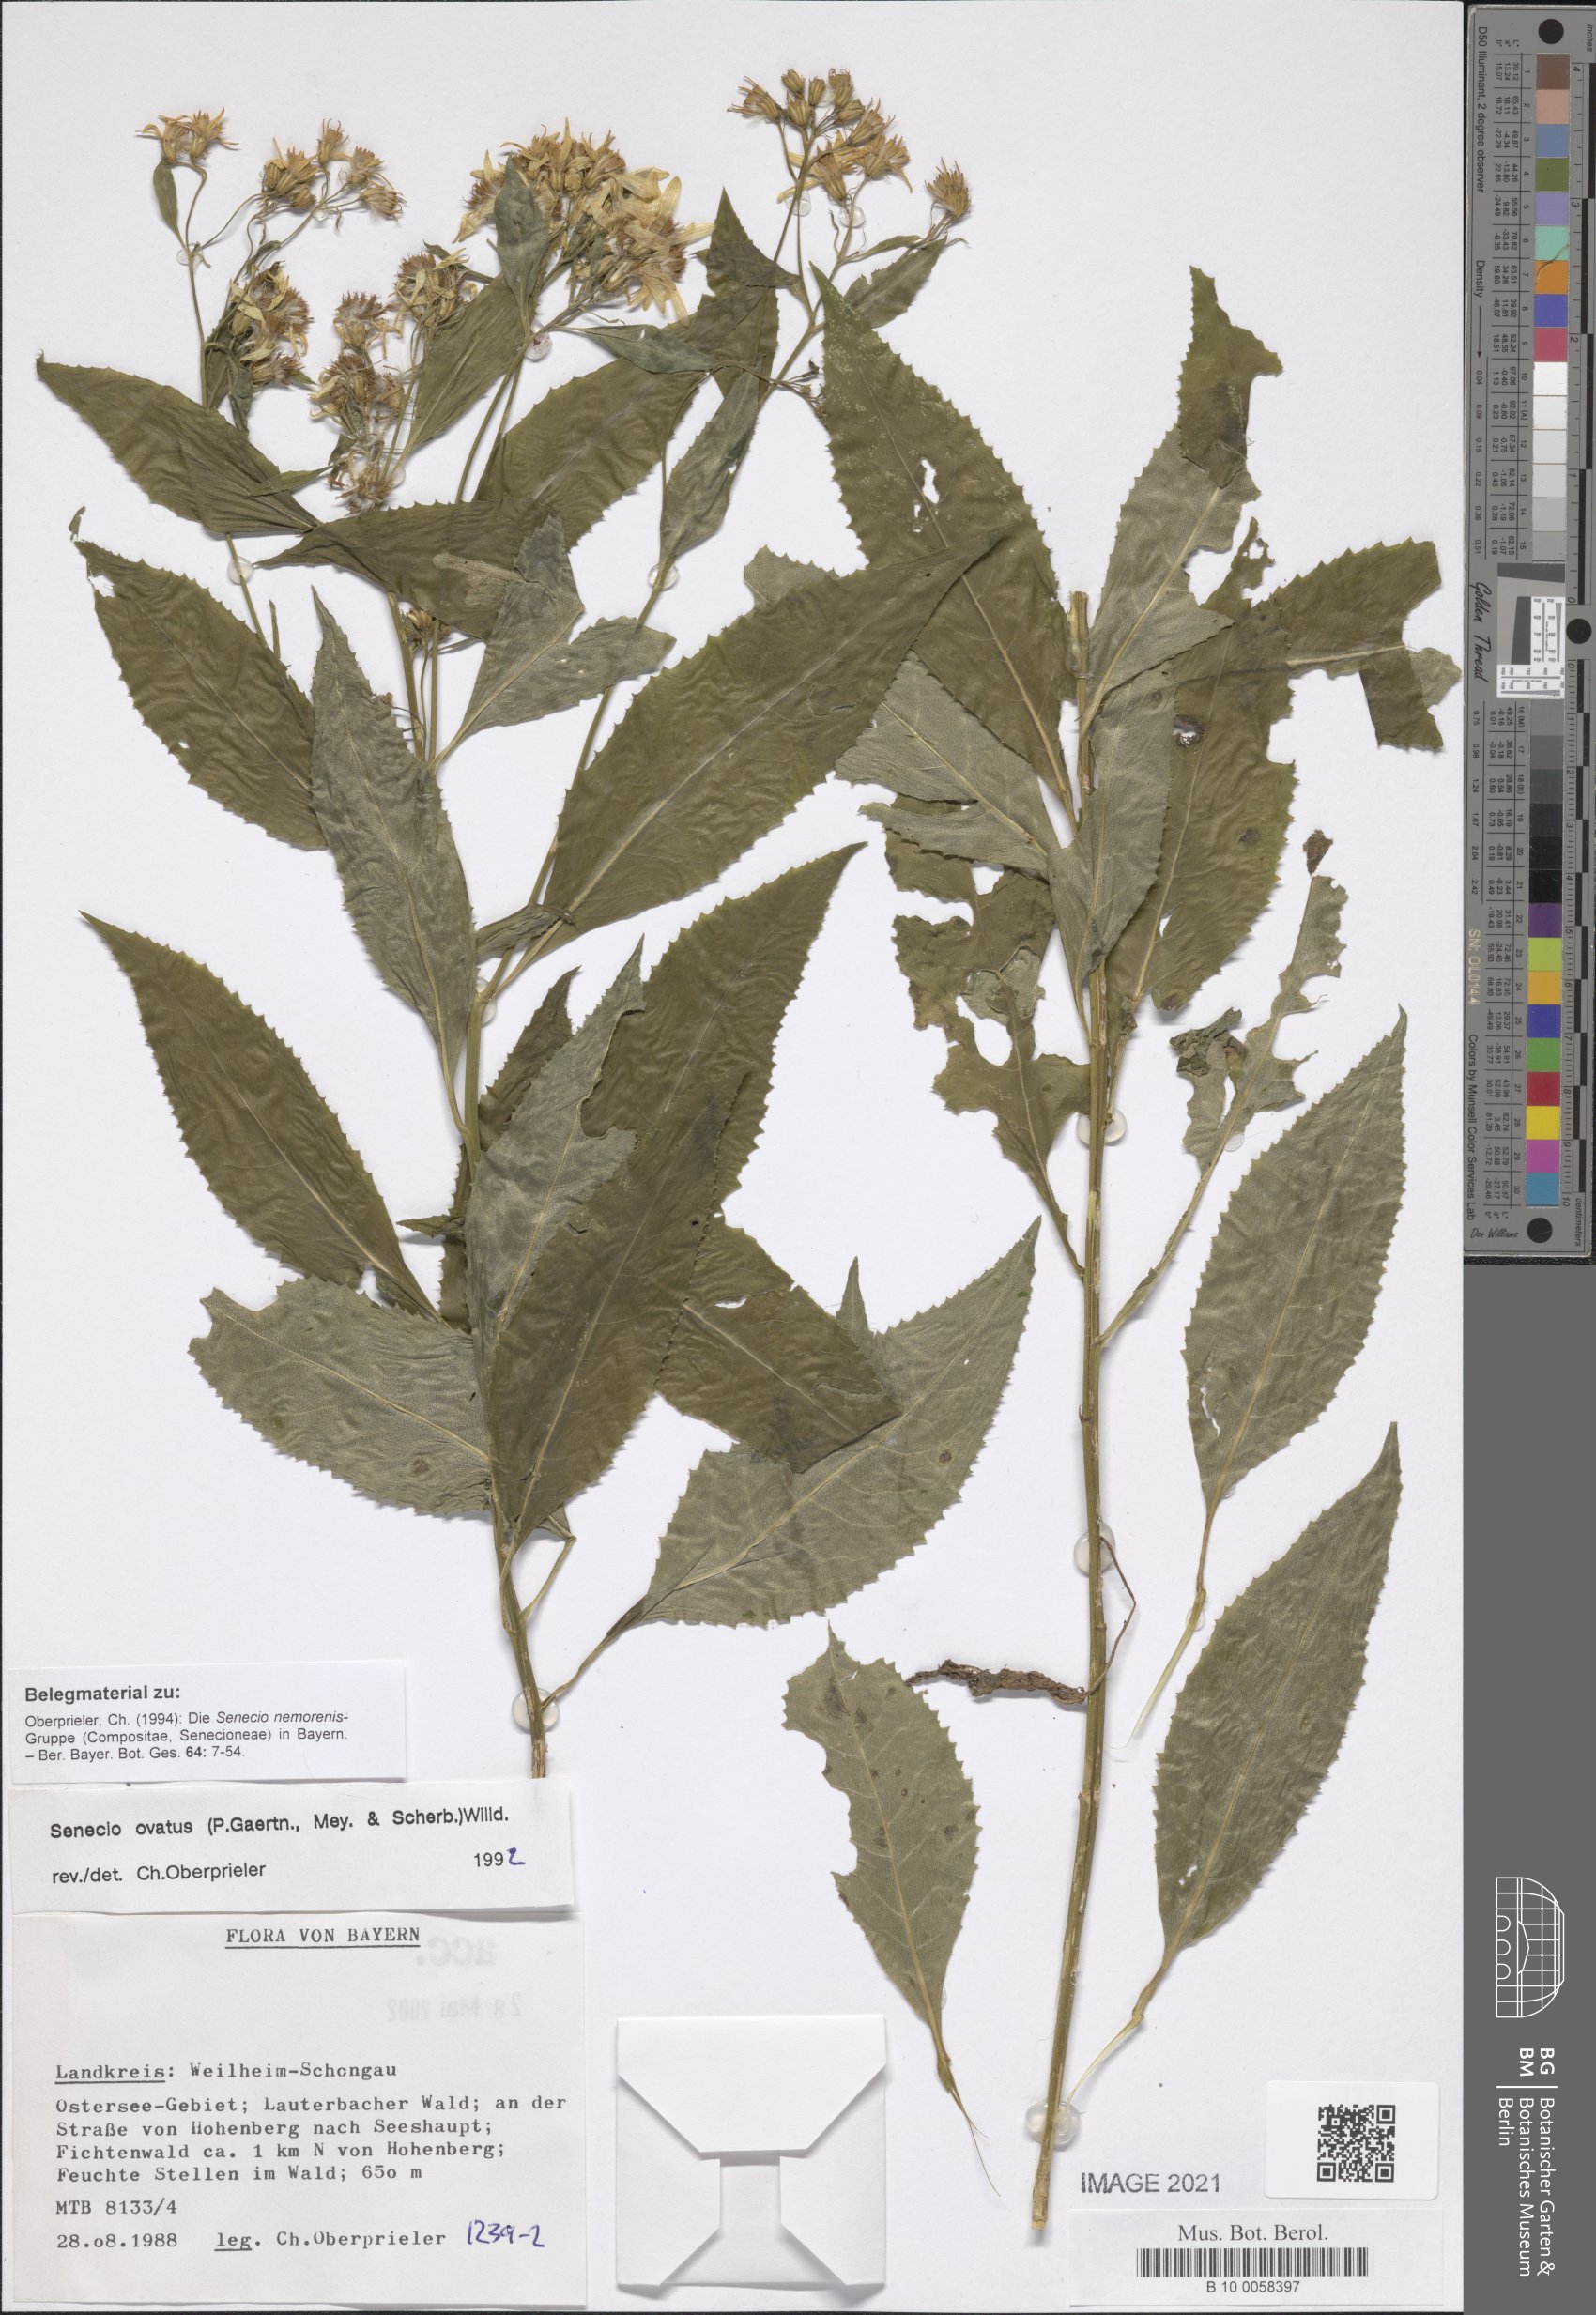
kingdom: Plantae
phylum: Tracheophyta
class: Magnoliopsida
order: Asterales
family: Asteraceae
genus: Senecio
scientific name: Senecio ovatus
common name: Wood ragwort
